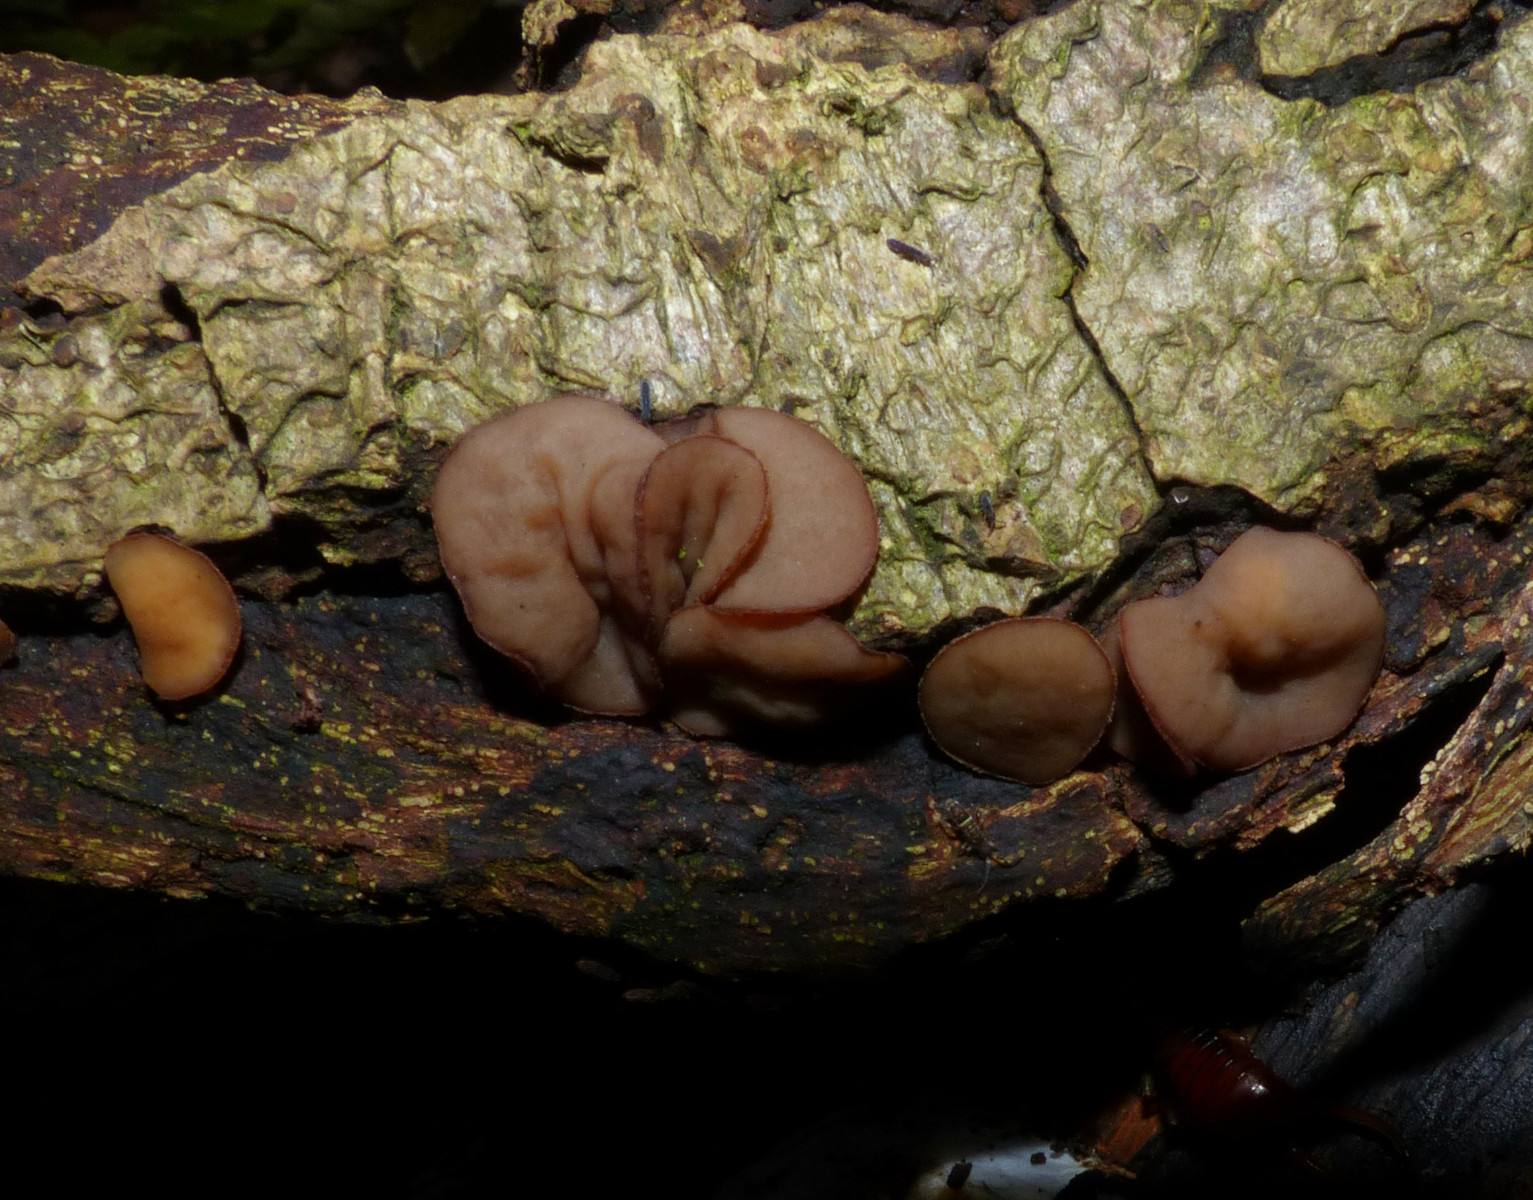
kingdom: Fungi
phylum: Ascomycota
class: Leotiomycetes
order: Helotiales
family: Rutstroemiaceae
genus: Rutstroemia
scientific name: Rutstroemia firma
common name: gren-brunskive
